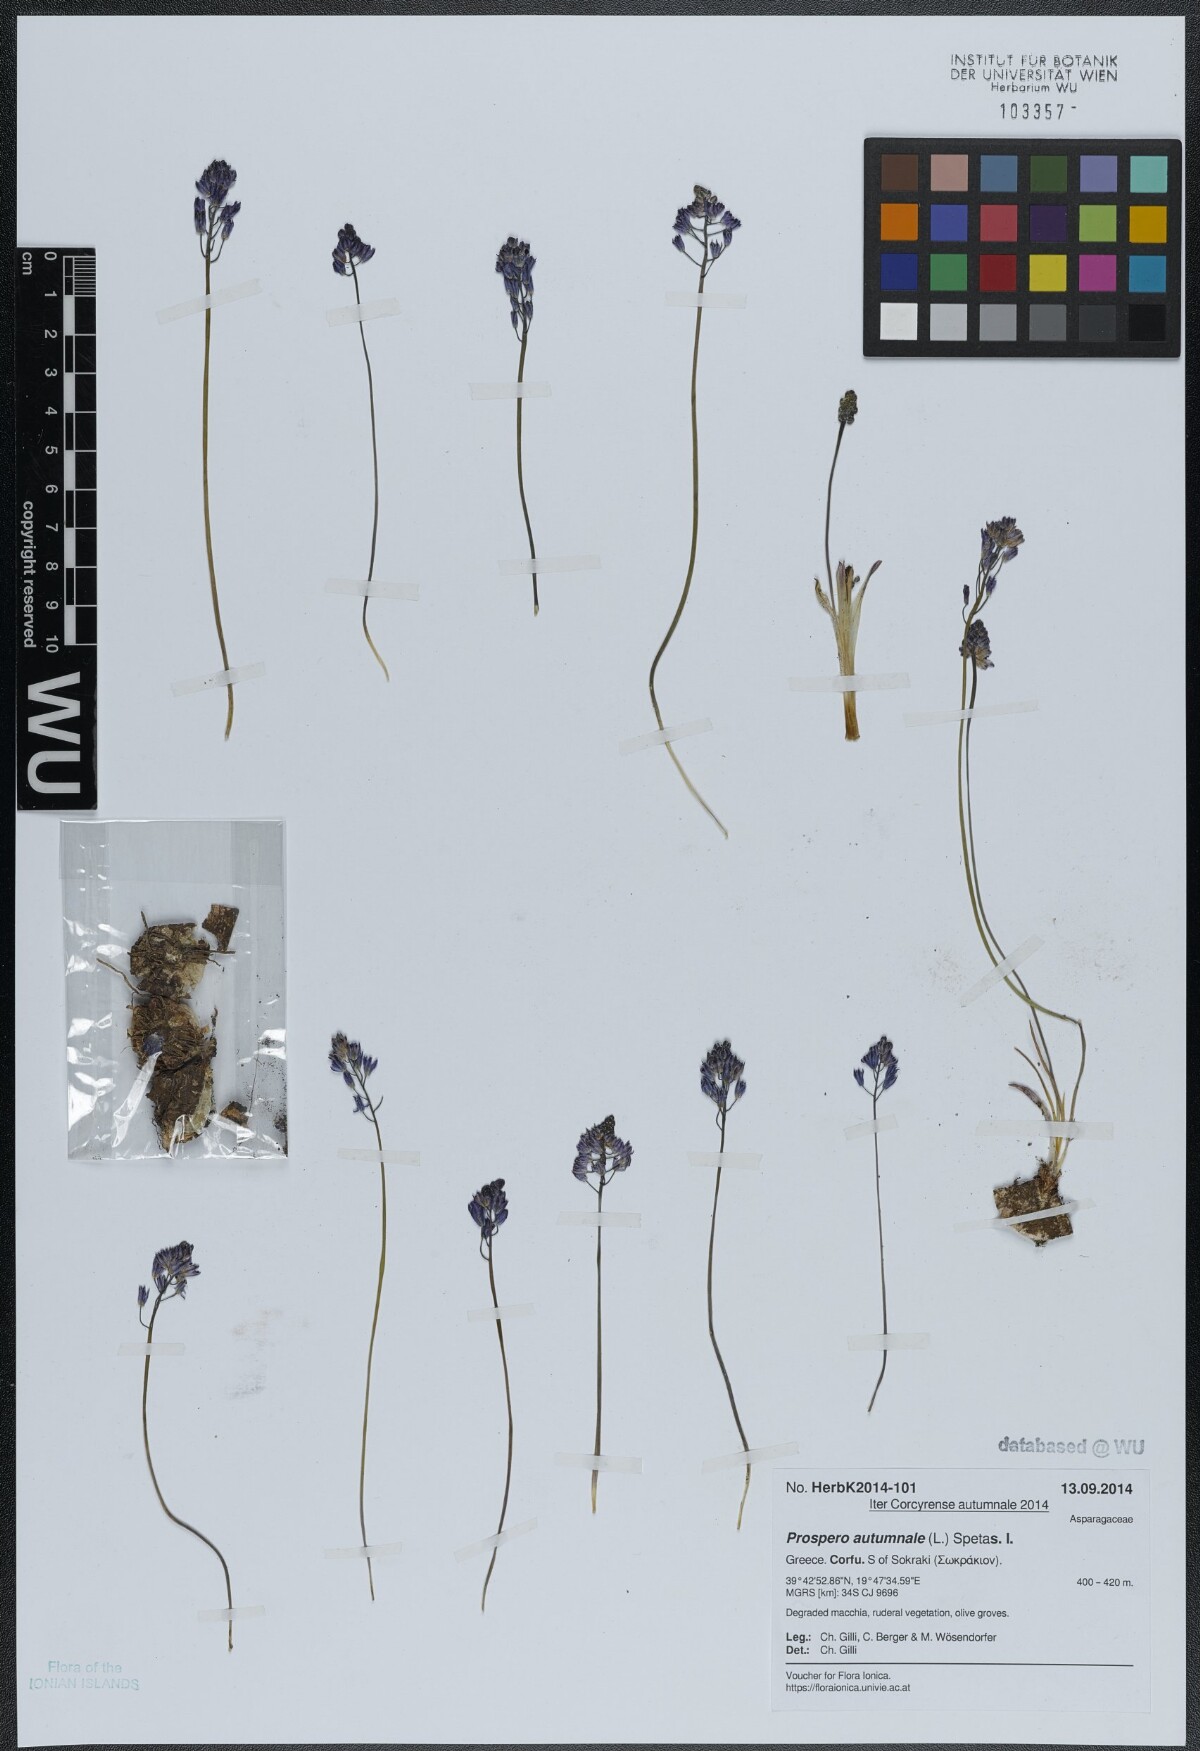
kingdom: Plantae
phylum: Tracheophyta
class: Liliopsida
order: Asparagales
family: Asparagaceae
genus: Prospero
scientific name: Prospero autumnale
